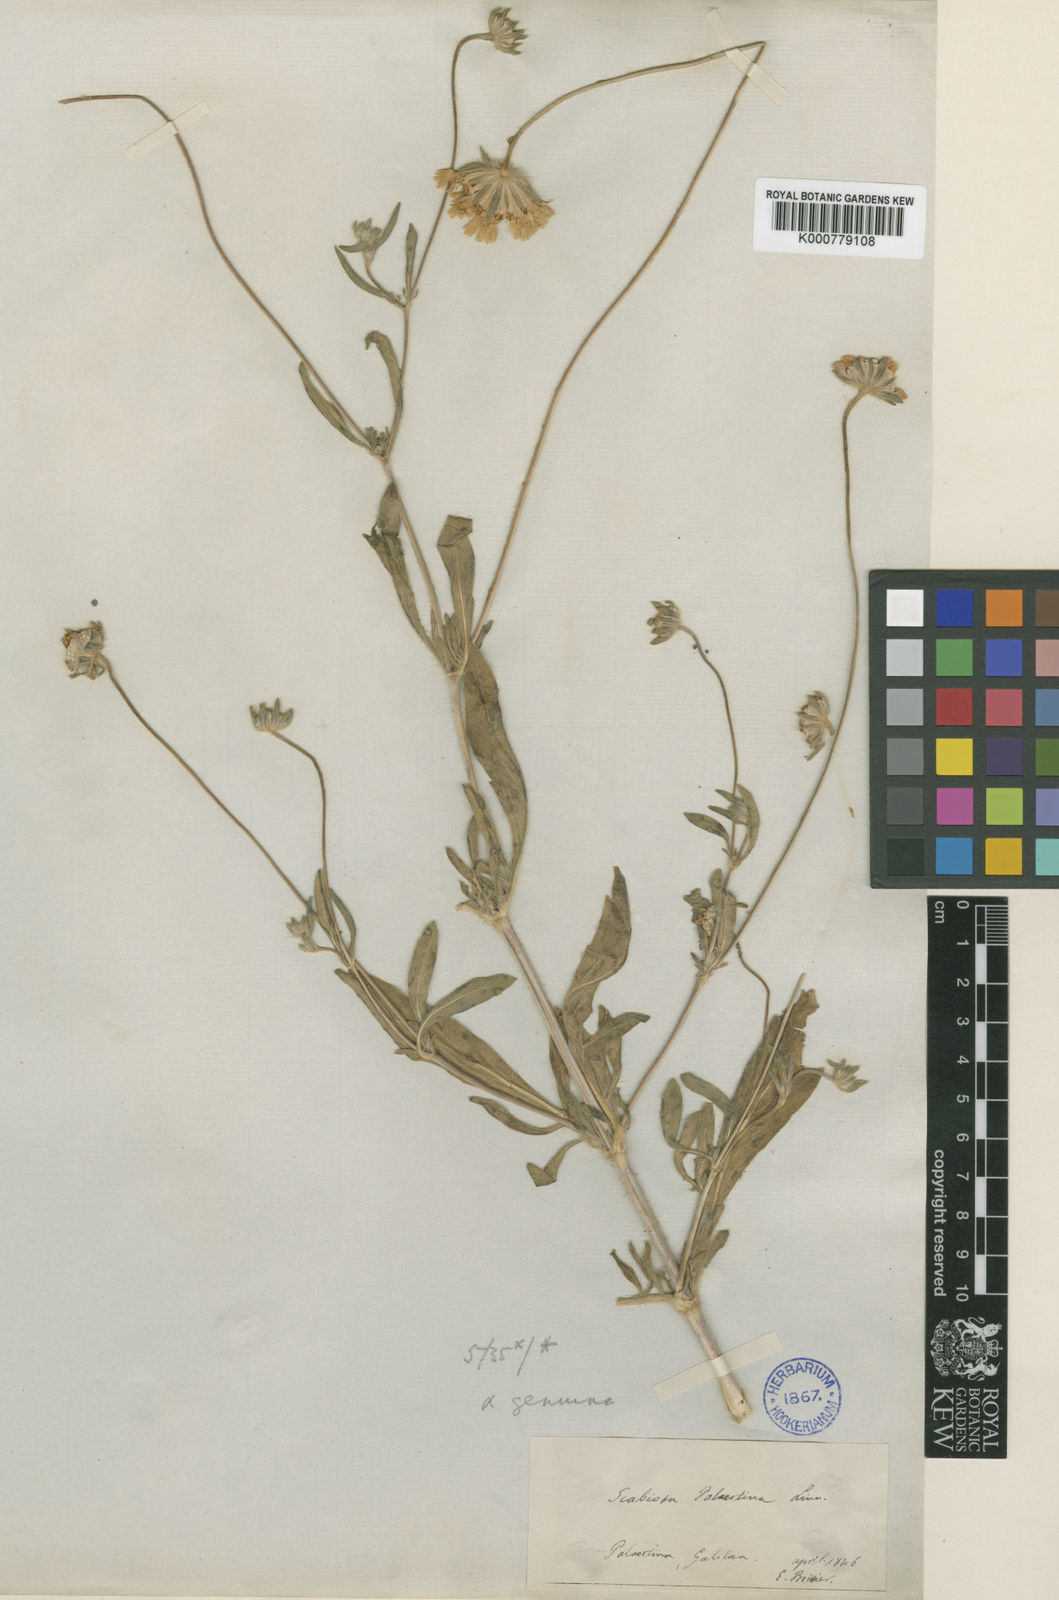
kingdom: Plantae
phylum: Tracheophyta
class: Magnoliopsida
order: Dipsacales
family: Caprifoliaceae
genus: Lomelosia
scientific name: Lomelosia palaestina
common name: Balkan pincushions
